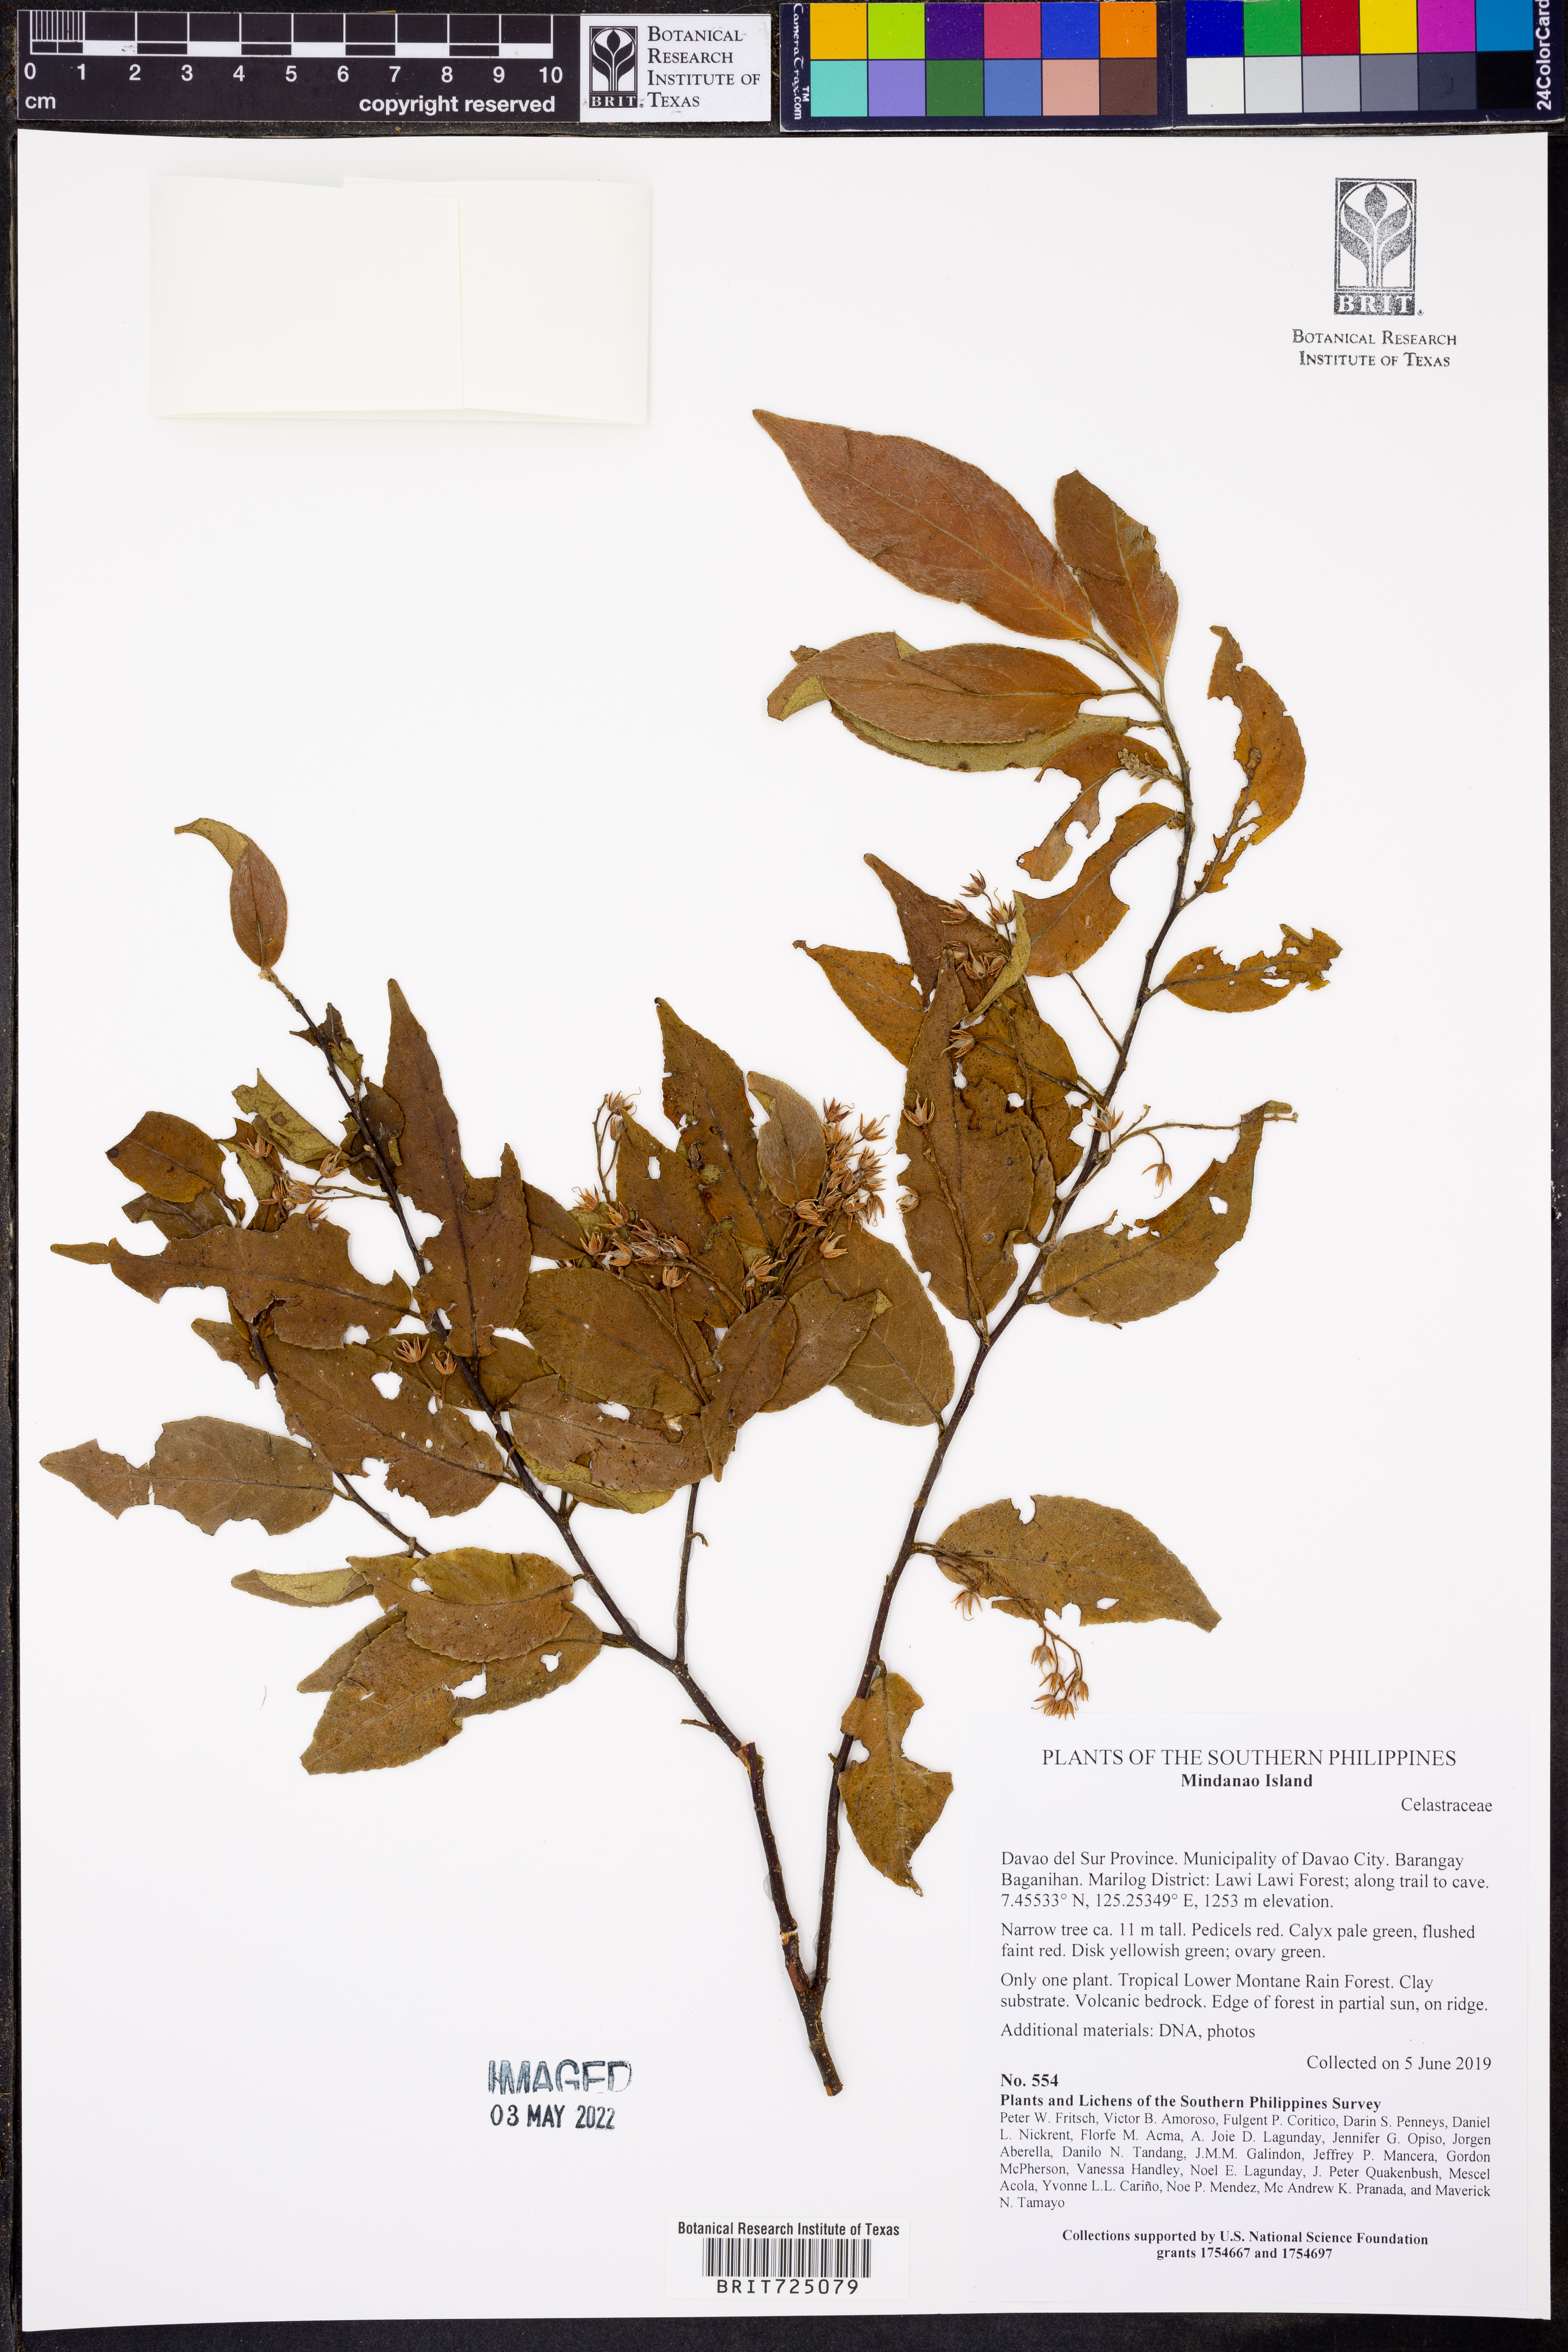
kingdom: Plantae
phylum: Tracheophyta
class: Magnoliopsida
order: Celastrales
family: Celastraceae
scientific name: Celastraceae
